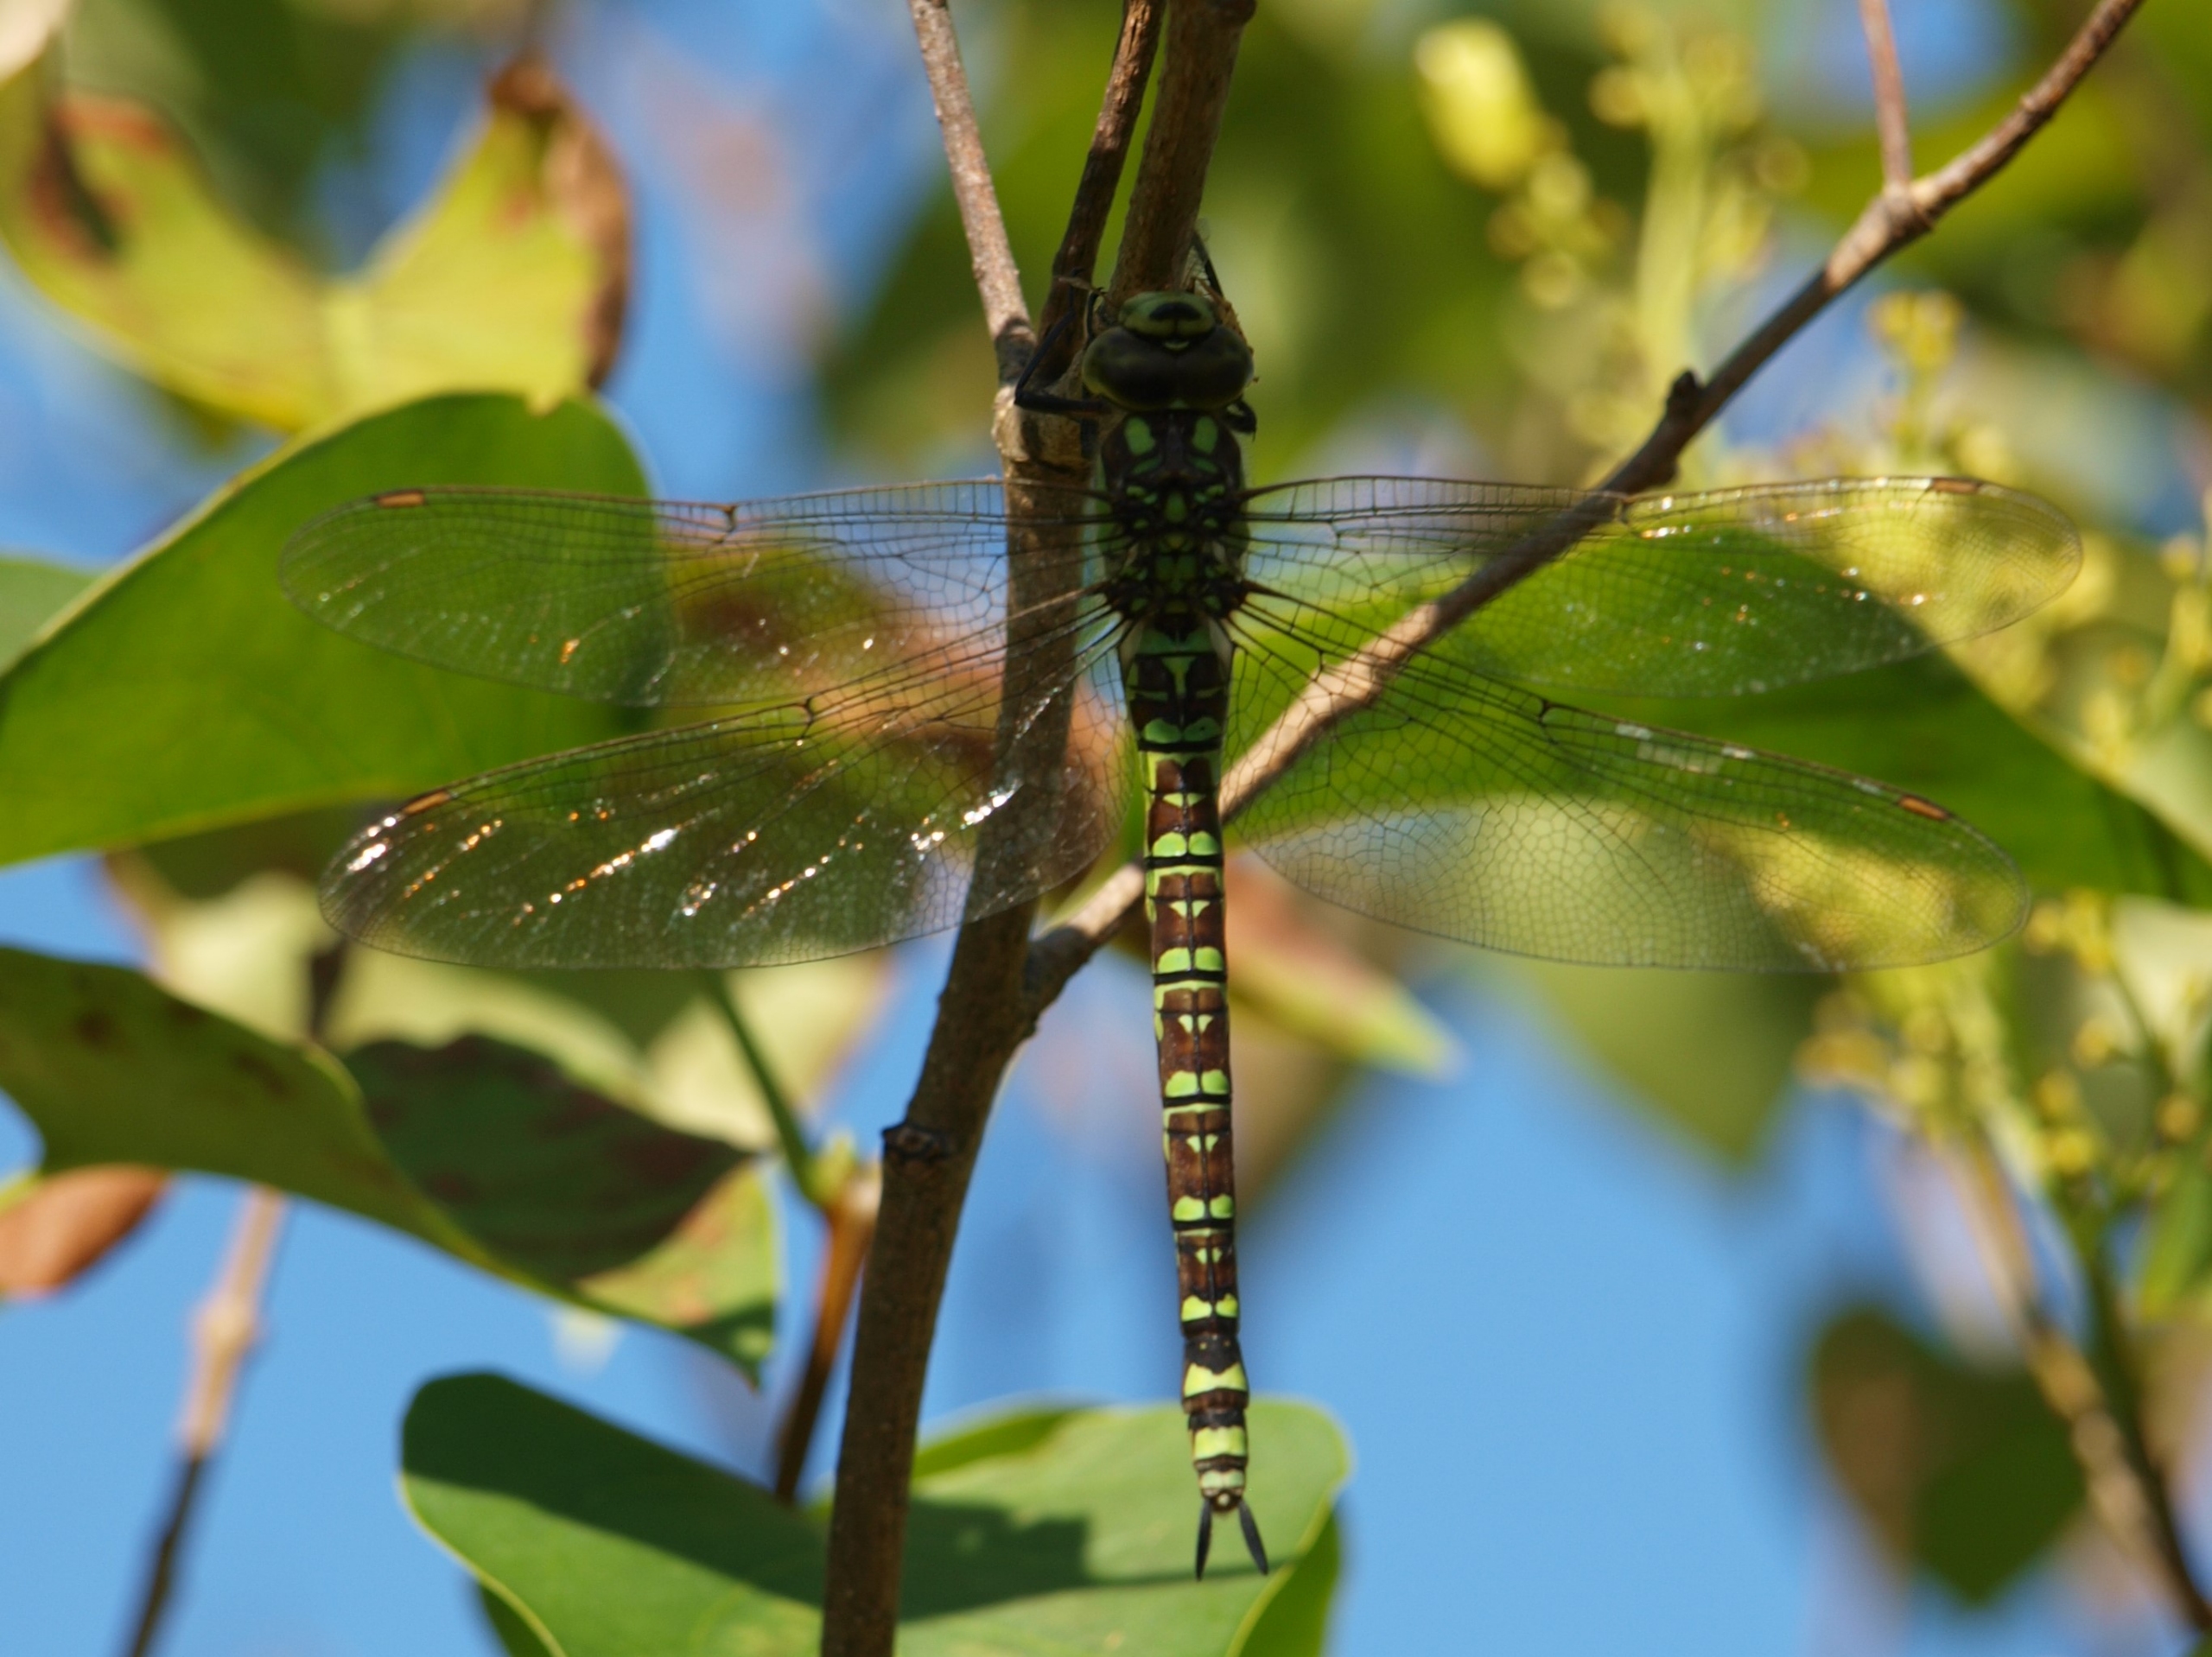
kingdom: Animalia
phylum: Arthropoda
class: Insecta
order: Odonata
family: Aeshnidae
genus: Aeshna
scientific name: Aeshna cyanea
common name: Blå mosaikguldsmed
